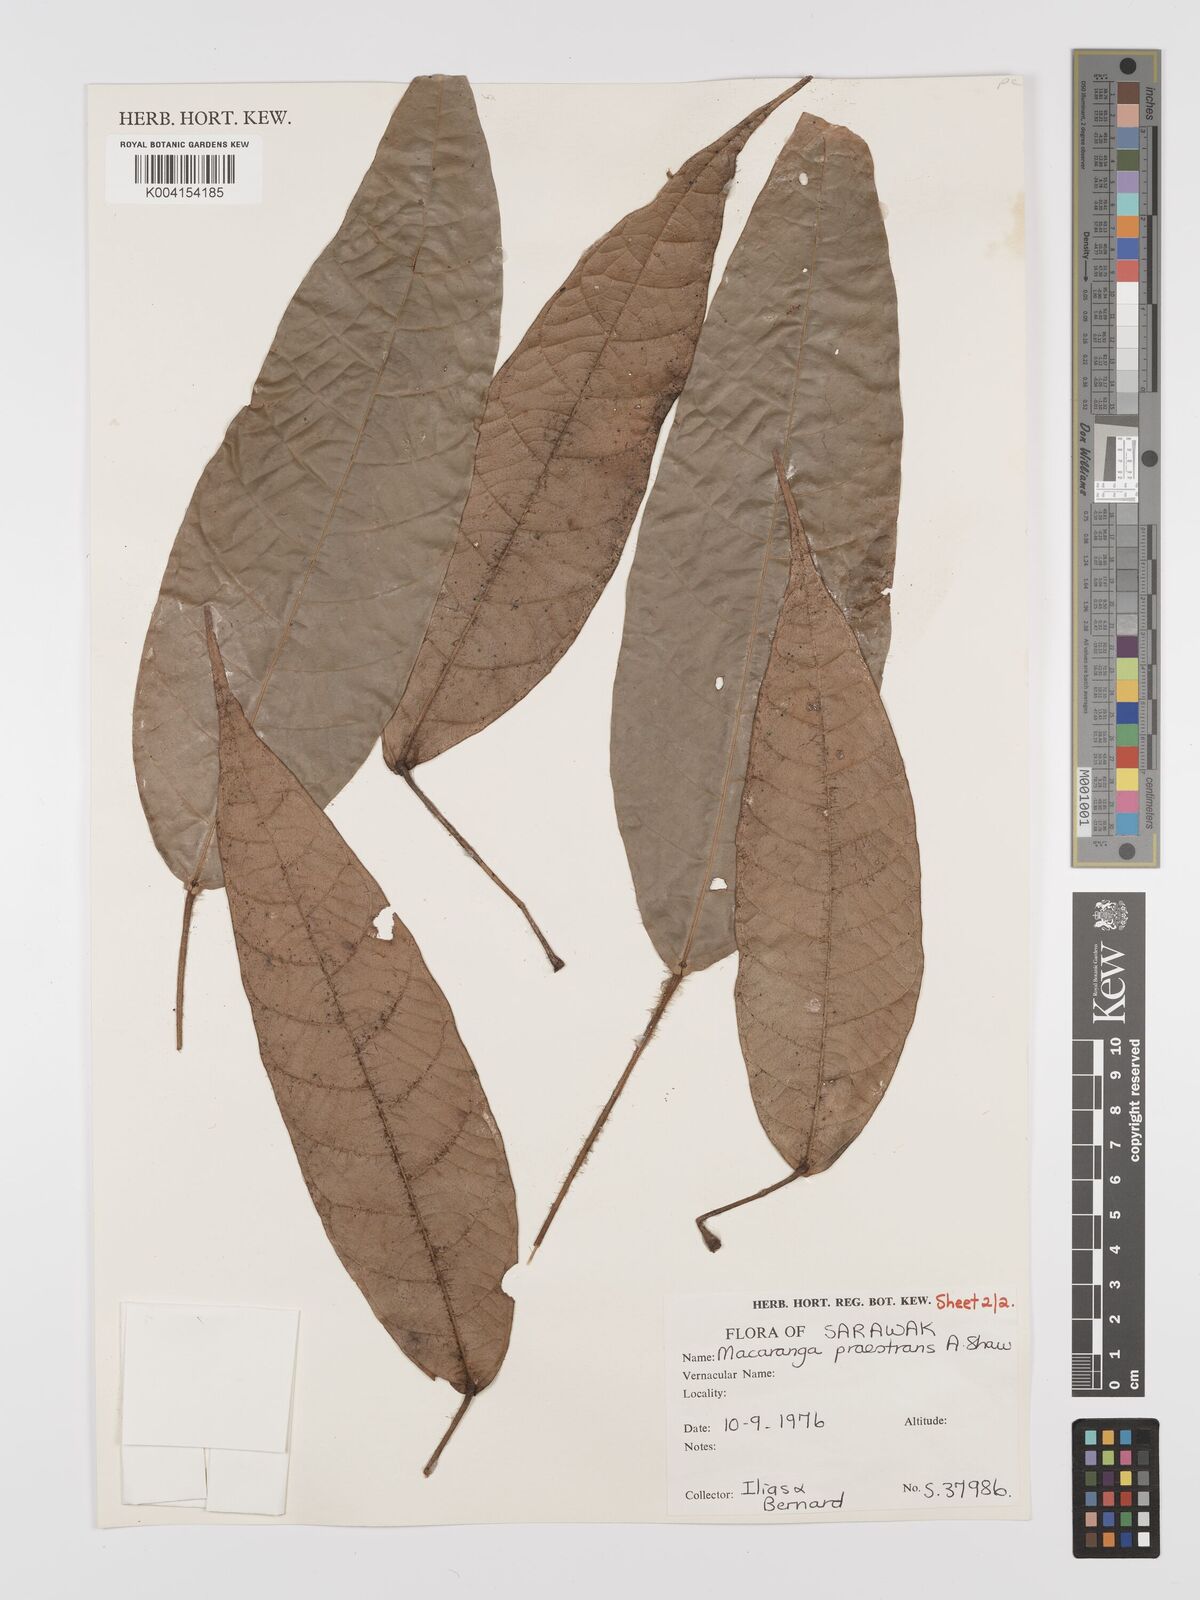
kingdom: Plantae
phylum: Tracheophyta
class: Magnoliopsida
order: Malpighiales
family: Euphorbiaceae
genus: Macaranga
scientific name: Macaranga praestans
